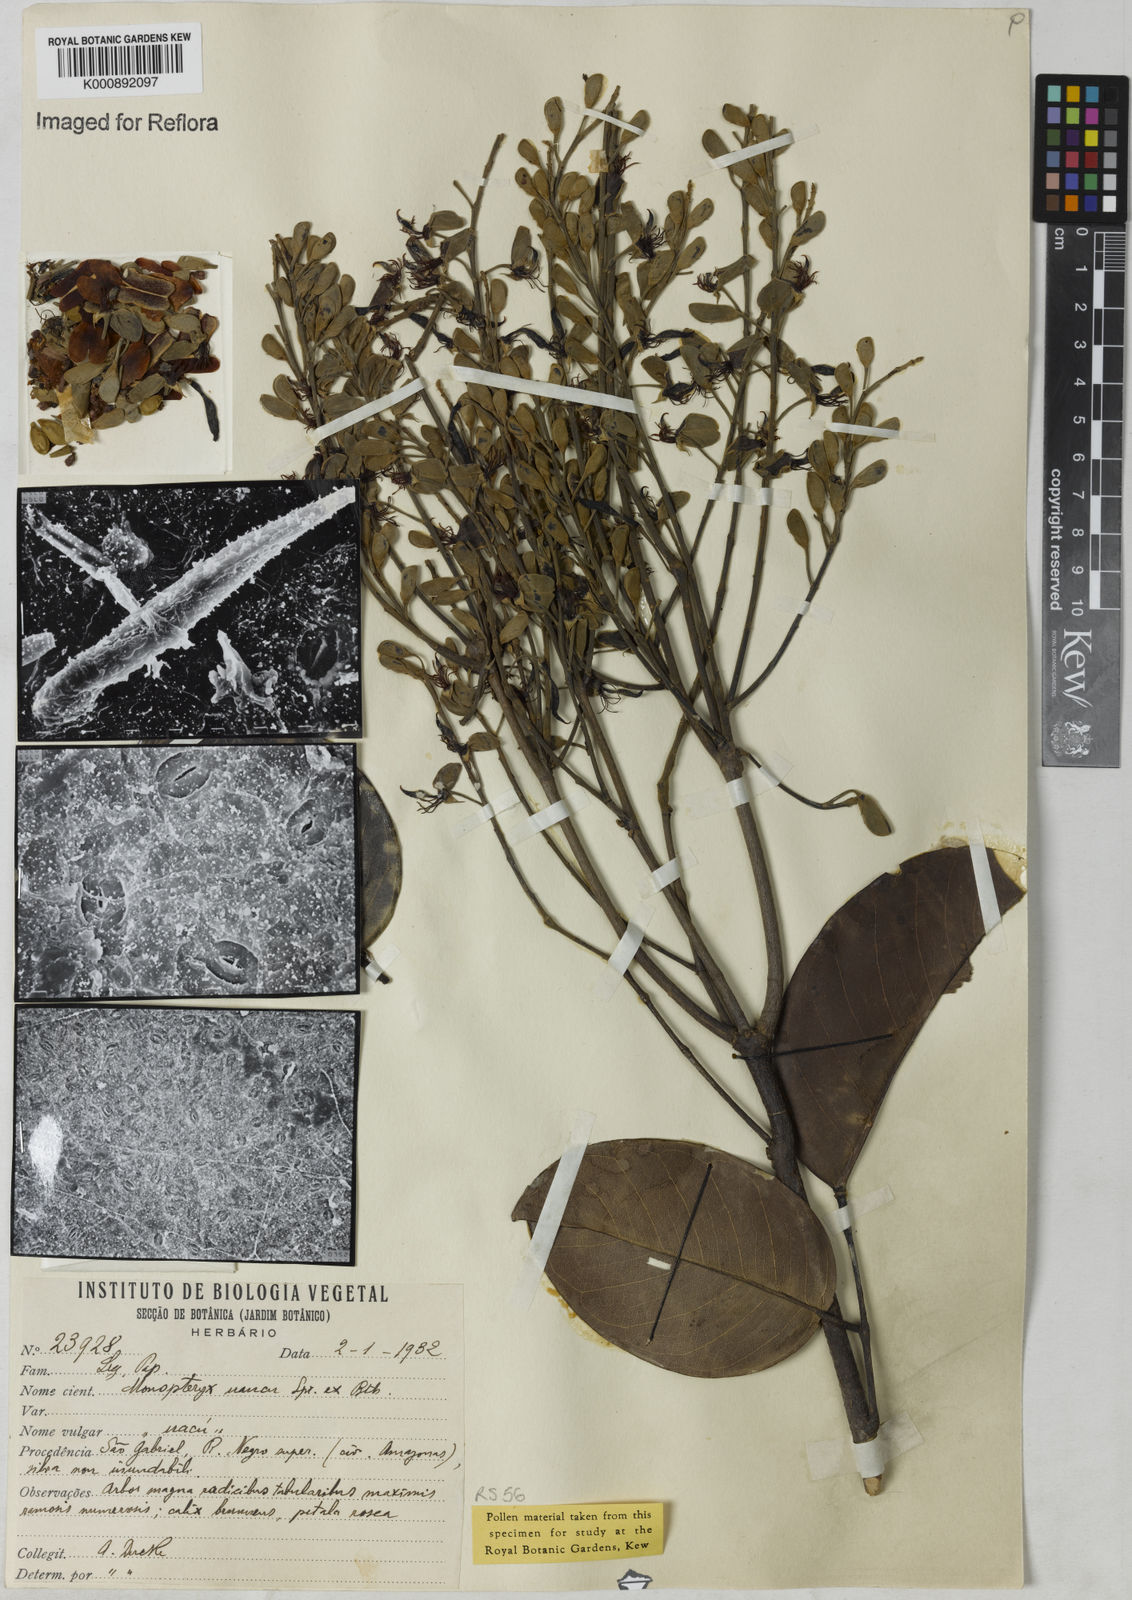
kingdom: Plantae
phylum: Tracheophyta
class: Magnoliopsida
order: Fabales
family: Fabaceae
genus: Monopteryx
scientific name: Monopteryx angustifolia
